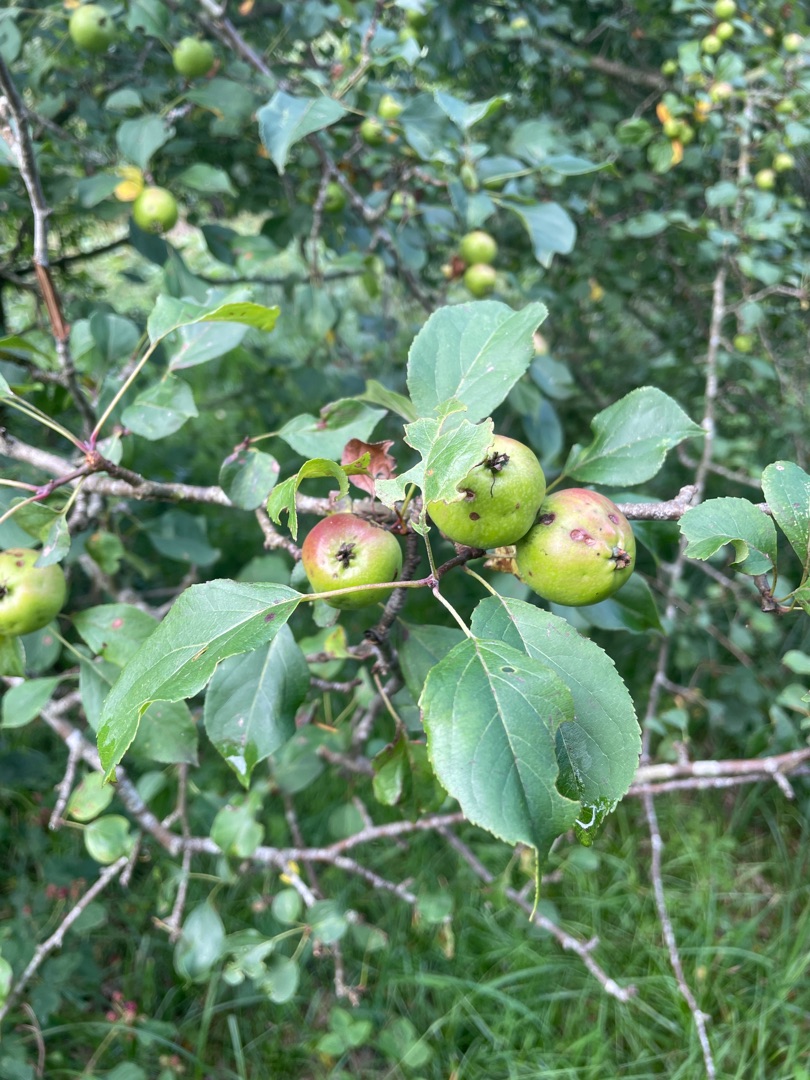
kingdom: Plantae
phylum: Tracheophyta
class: Magnoliopsida
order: Rosales
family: Rosaceae
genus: Malus
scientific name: Malus
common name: Æbleslægten
